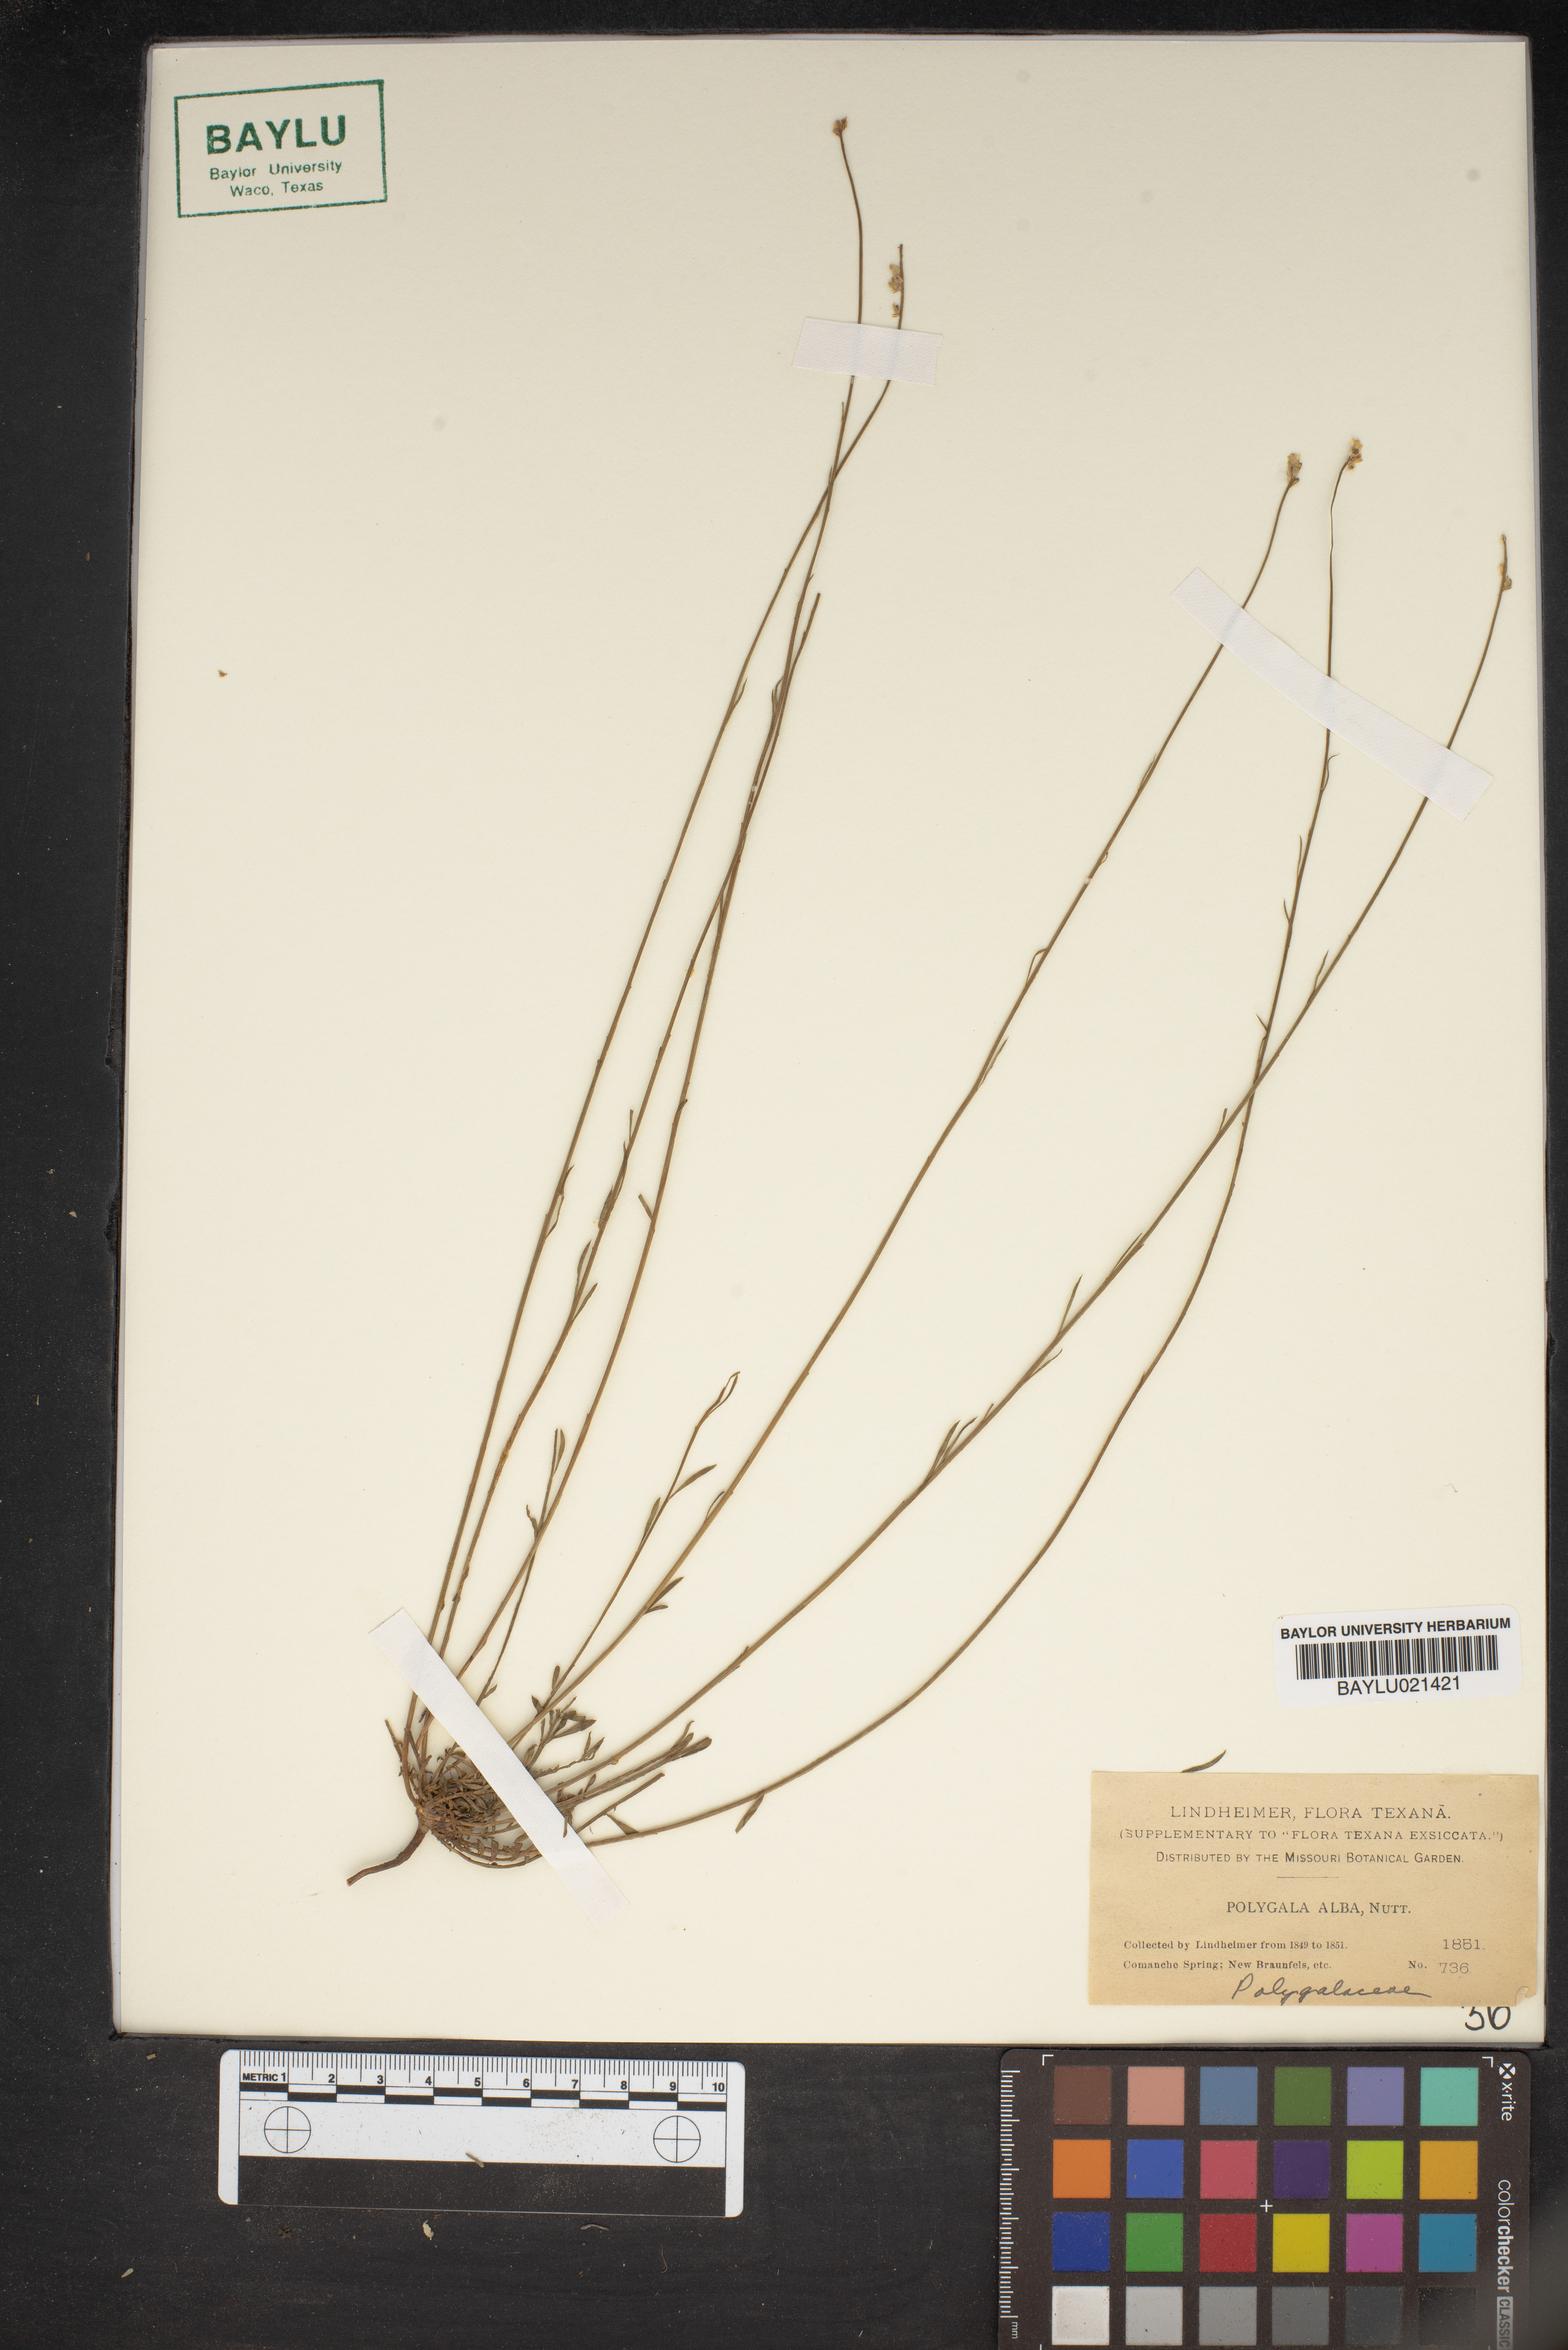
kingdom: Plantae
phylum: Tracheophyta
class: Magnoliopsida
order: Fabales
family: Polygalaceae
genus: Polygala
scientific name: Polygala alba
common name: White milkwort
